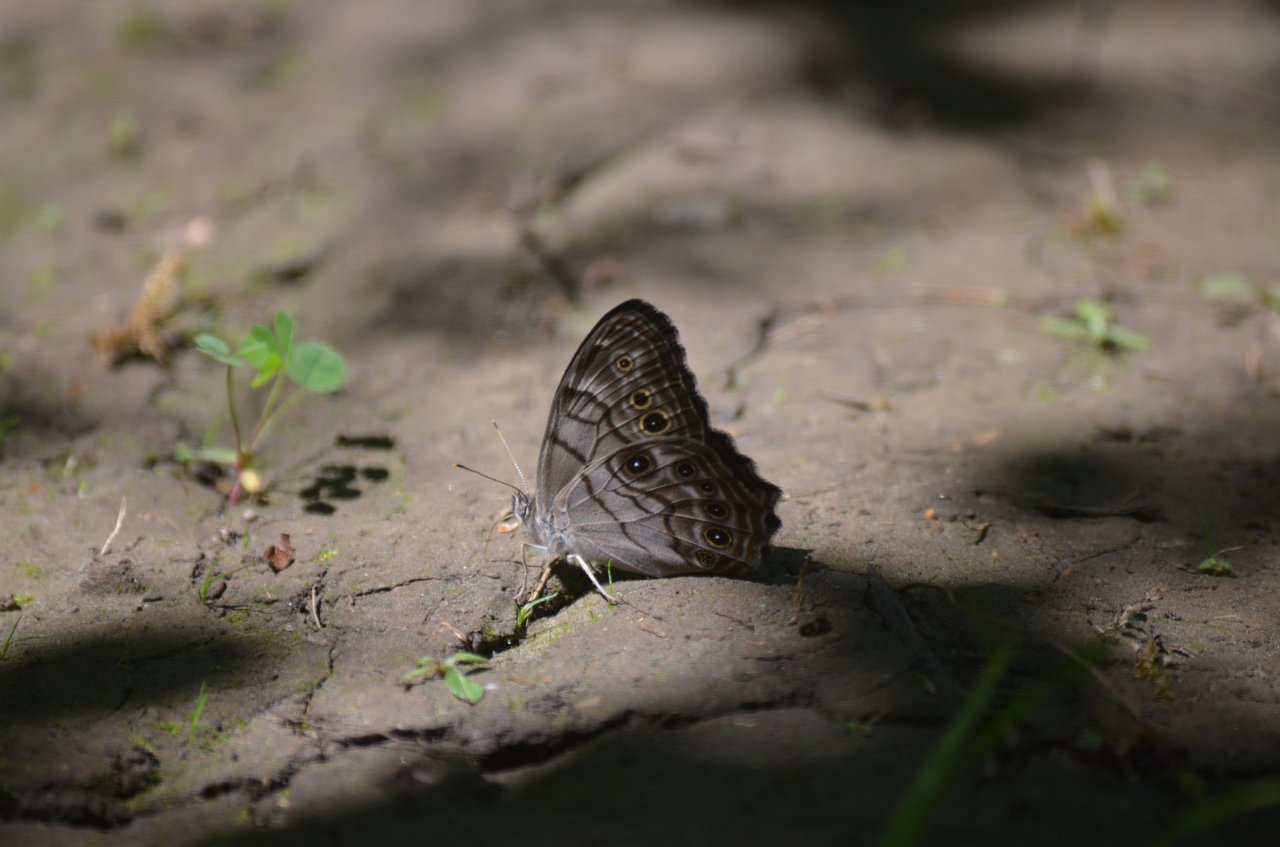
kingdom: Animalia
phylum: Arthropoda
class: Insecta
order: Lepidoptera
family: Nymphalidae
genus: Lethe
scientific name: Lethe anthedon
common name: Northern Pearly-Eye
